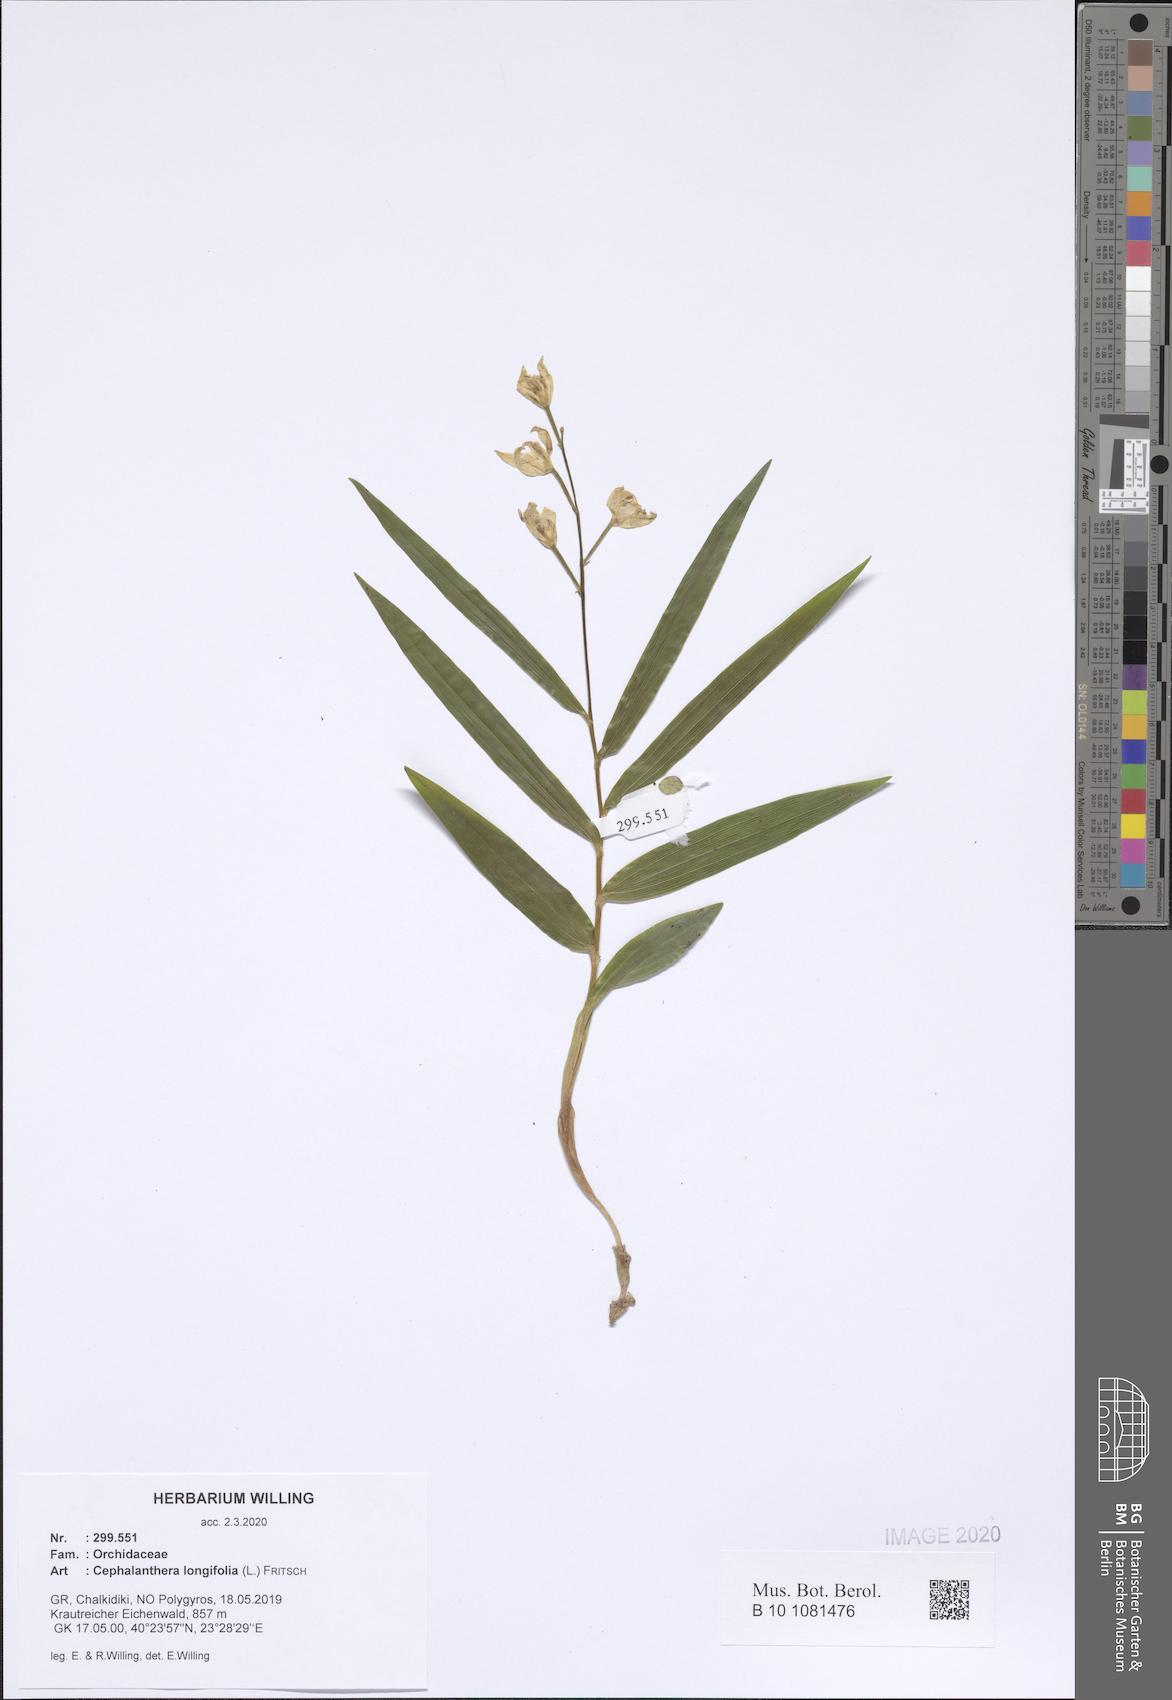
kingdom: Plantae
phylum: Tracheophyta
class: Liliopsida
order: Asparagales
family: Orchidaceae
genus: Cephalanthera
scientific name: Cephalanthera longifolia
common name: Narrow-leaved helleborine
